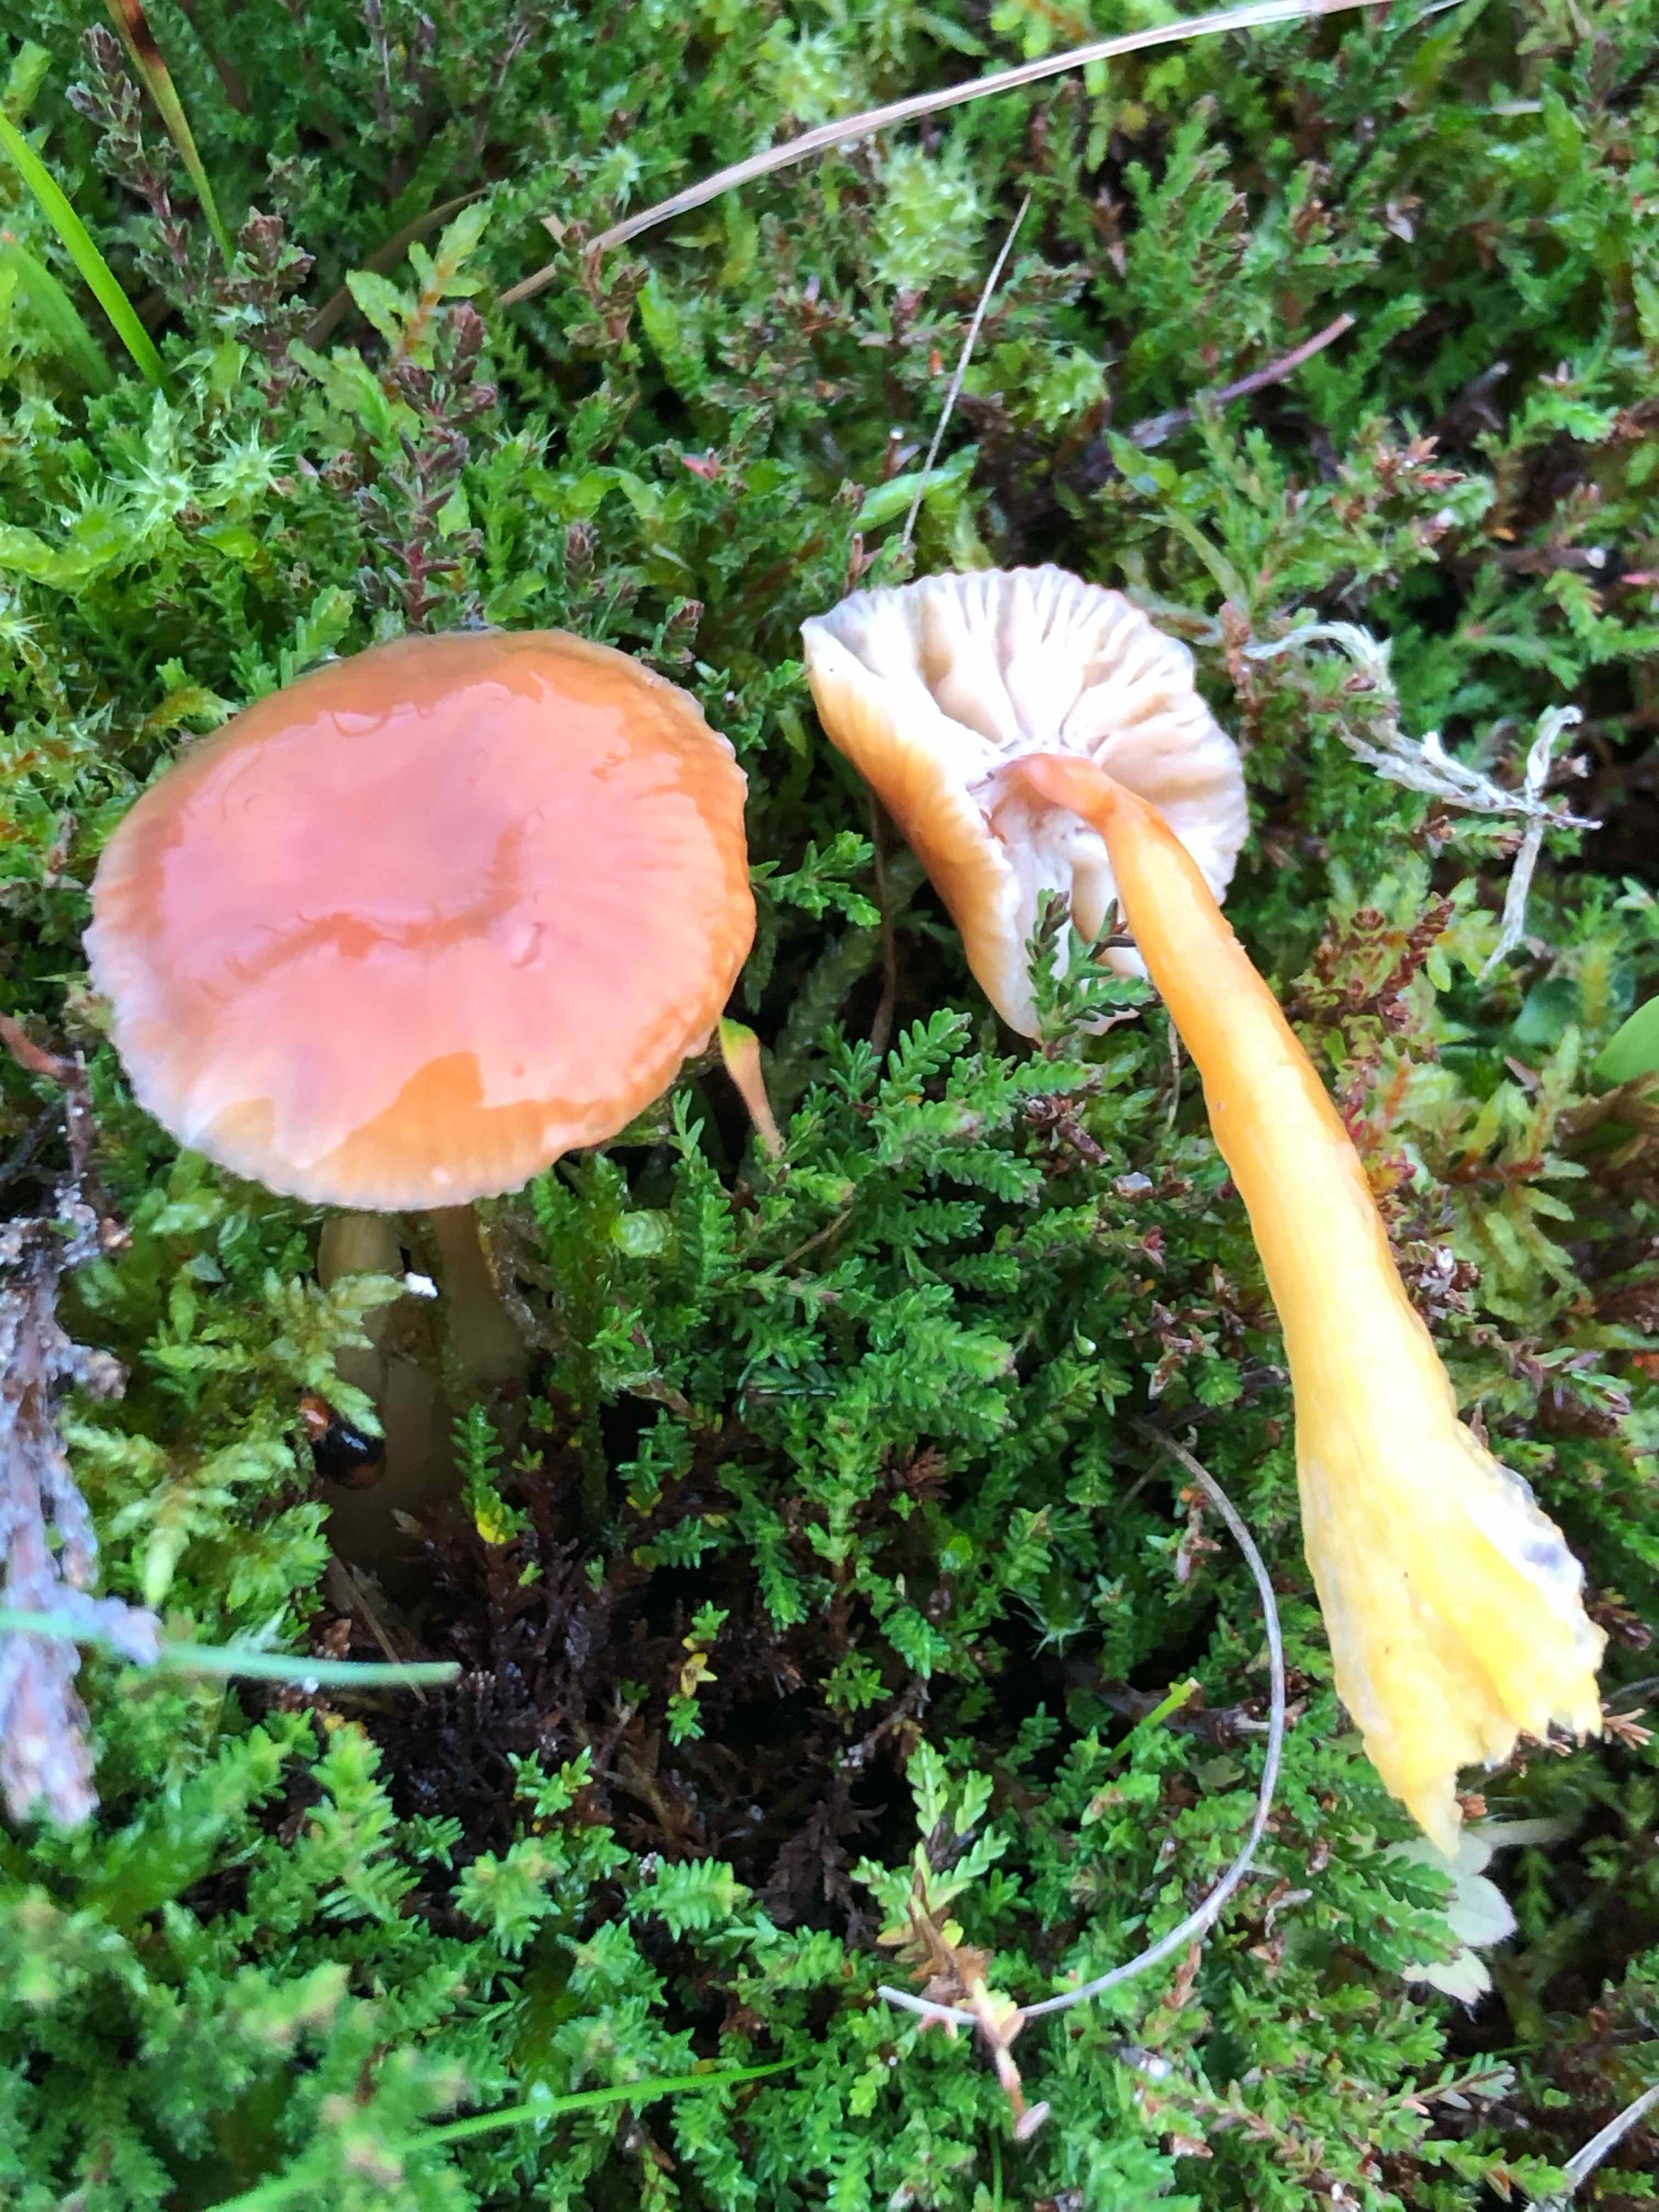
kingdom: Fungi
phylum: Basidiomycota
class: Agaricomycetes
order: Agaricales
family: Hygrophoraceae
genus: Gliophorus
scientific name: Gliophorus laetus
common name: brusk-vokshat
